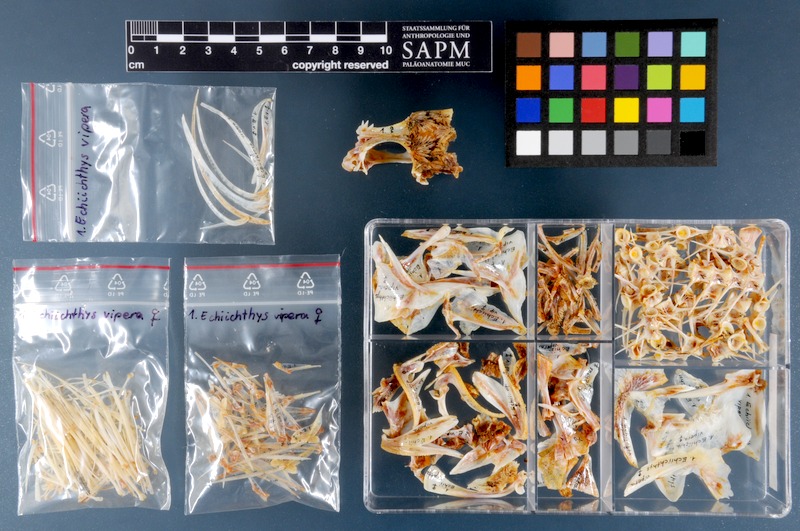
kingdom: Animalia
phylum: Chordata
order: Perciformes
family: Trachinidae
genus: Echiichthys
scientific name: Echiichthys vipera
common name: Lesser weever
